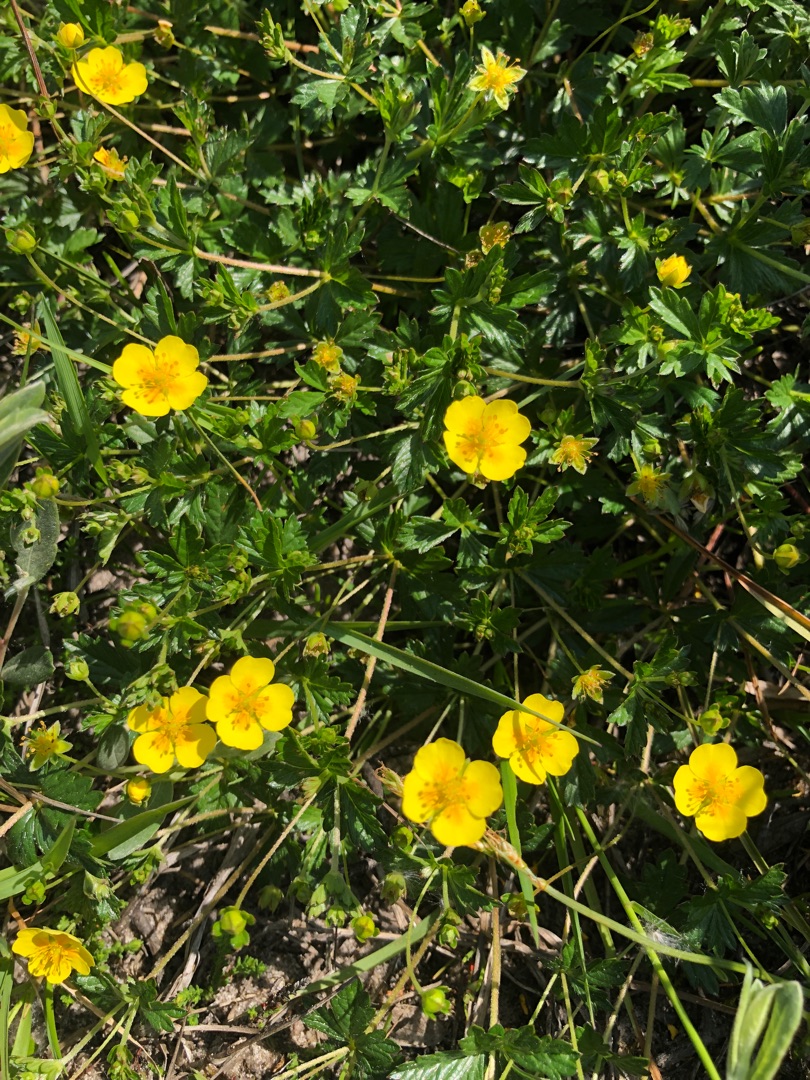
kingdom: Plantae
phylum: Tracheophyta
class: Magnoliopsida
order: Rosales
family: Rosaceae
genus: Potentilla
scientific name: Potentilla erecta
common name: Tormentil
